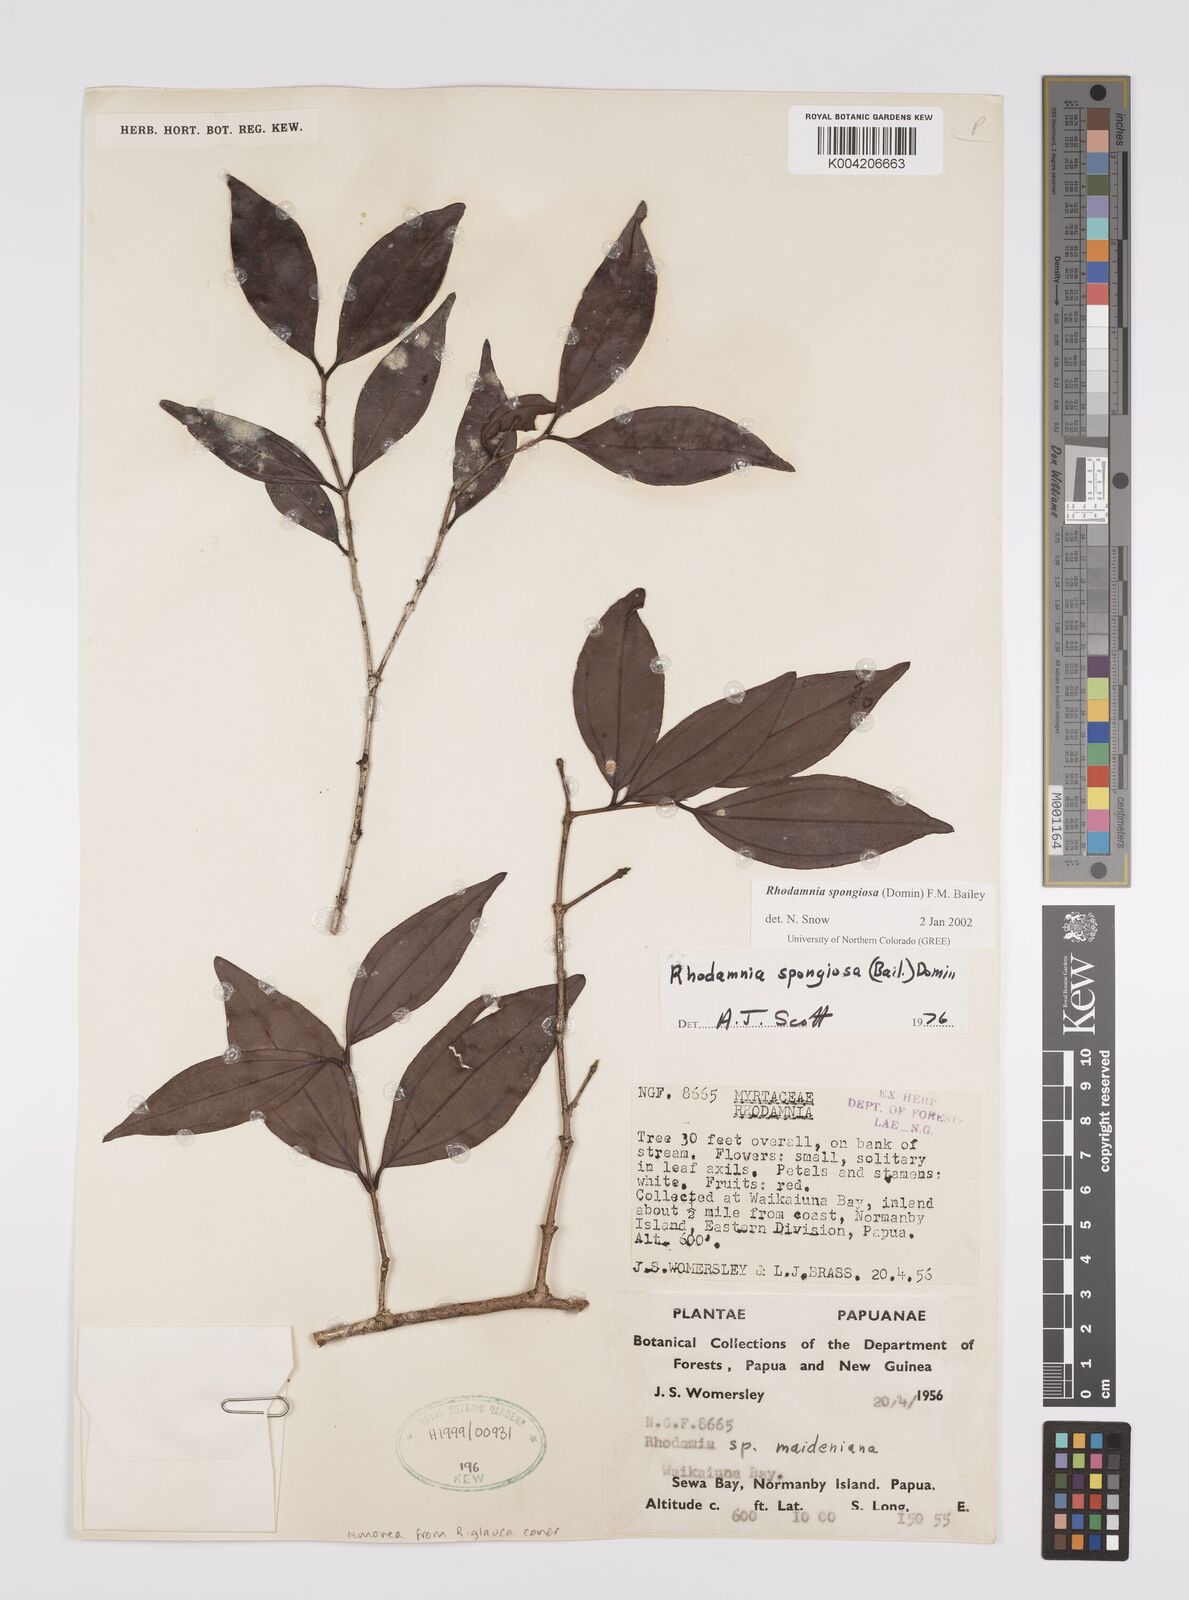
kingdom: Plantae
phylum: Tracheophyta
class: Magnoliopsida
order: Myrtales
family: Myrtaceae
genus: Rhodamnia
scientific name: Rhodamnia glauca
